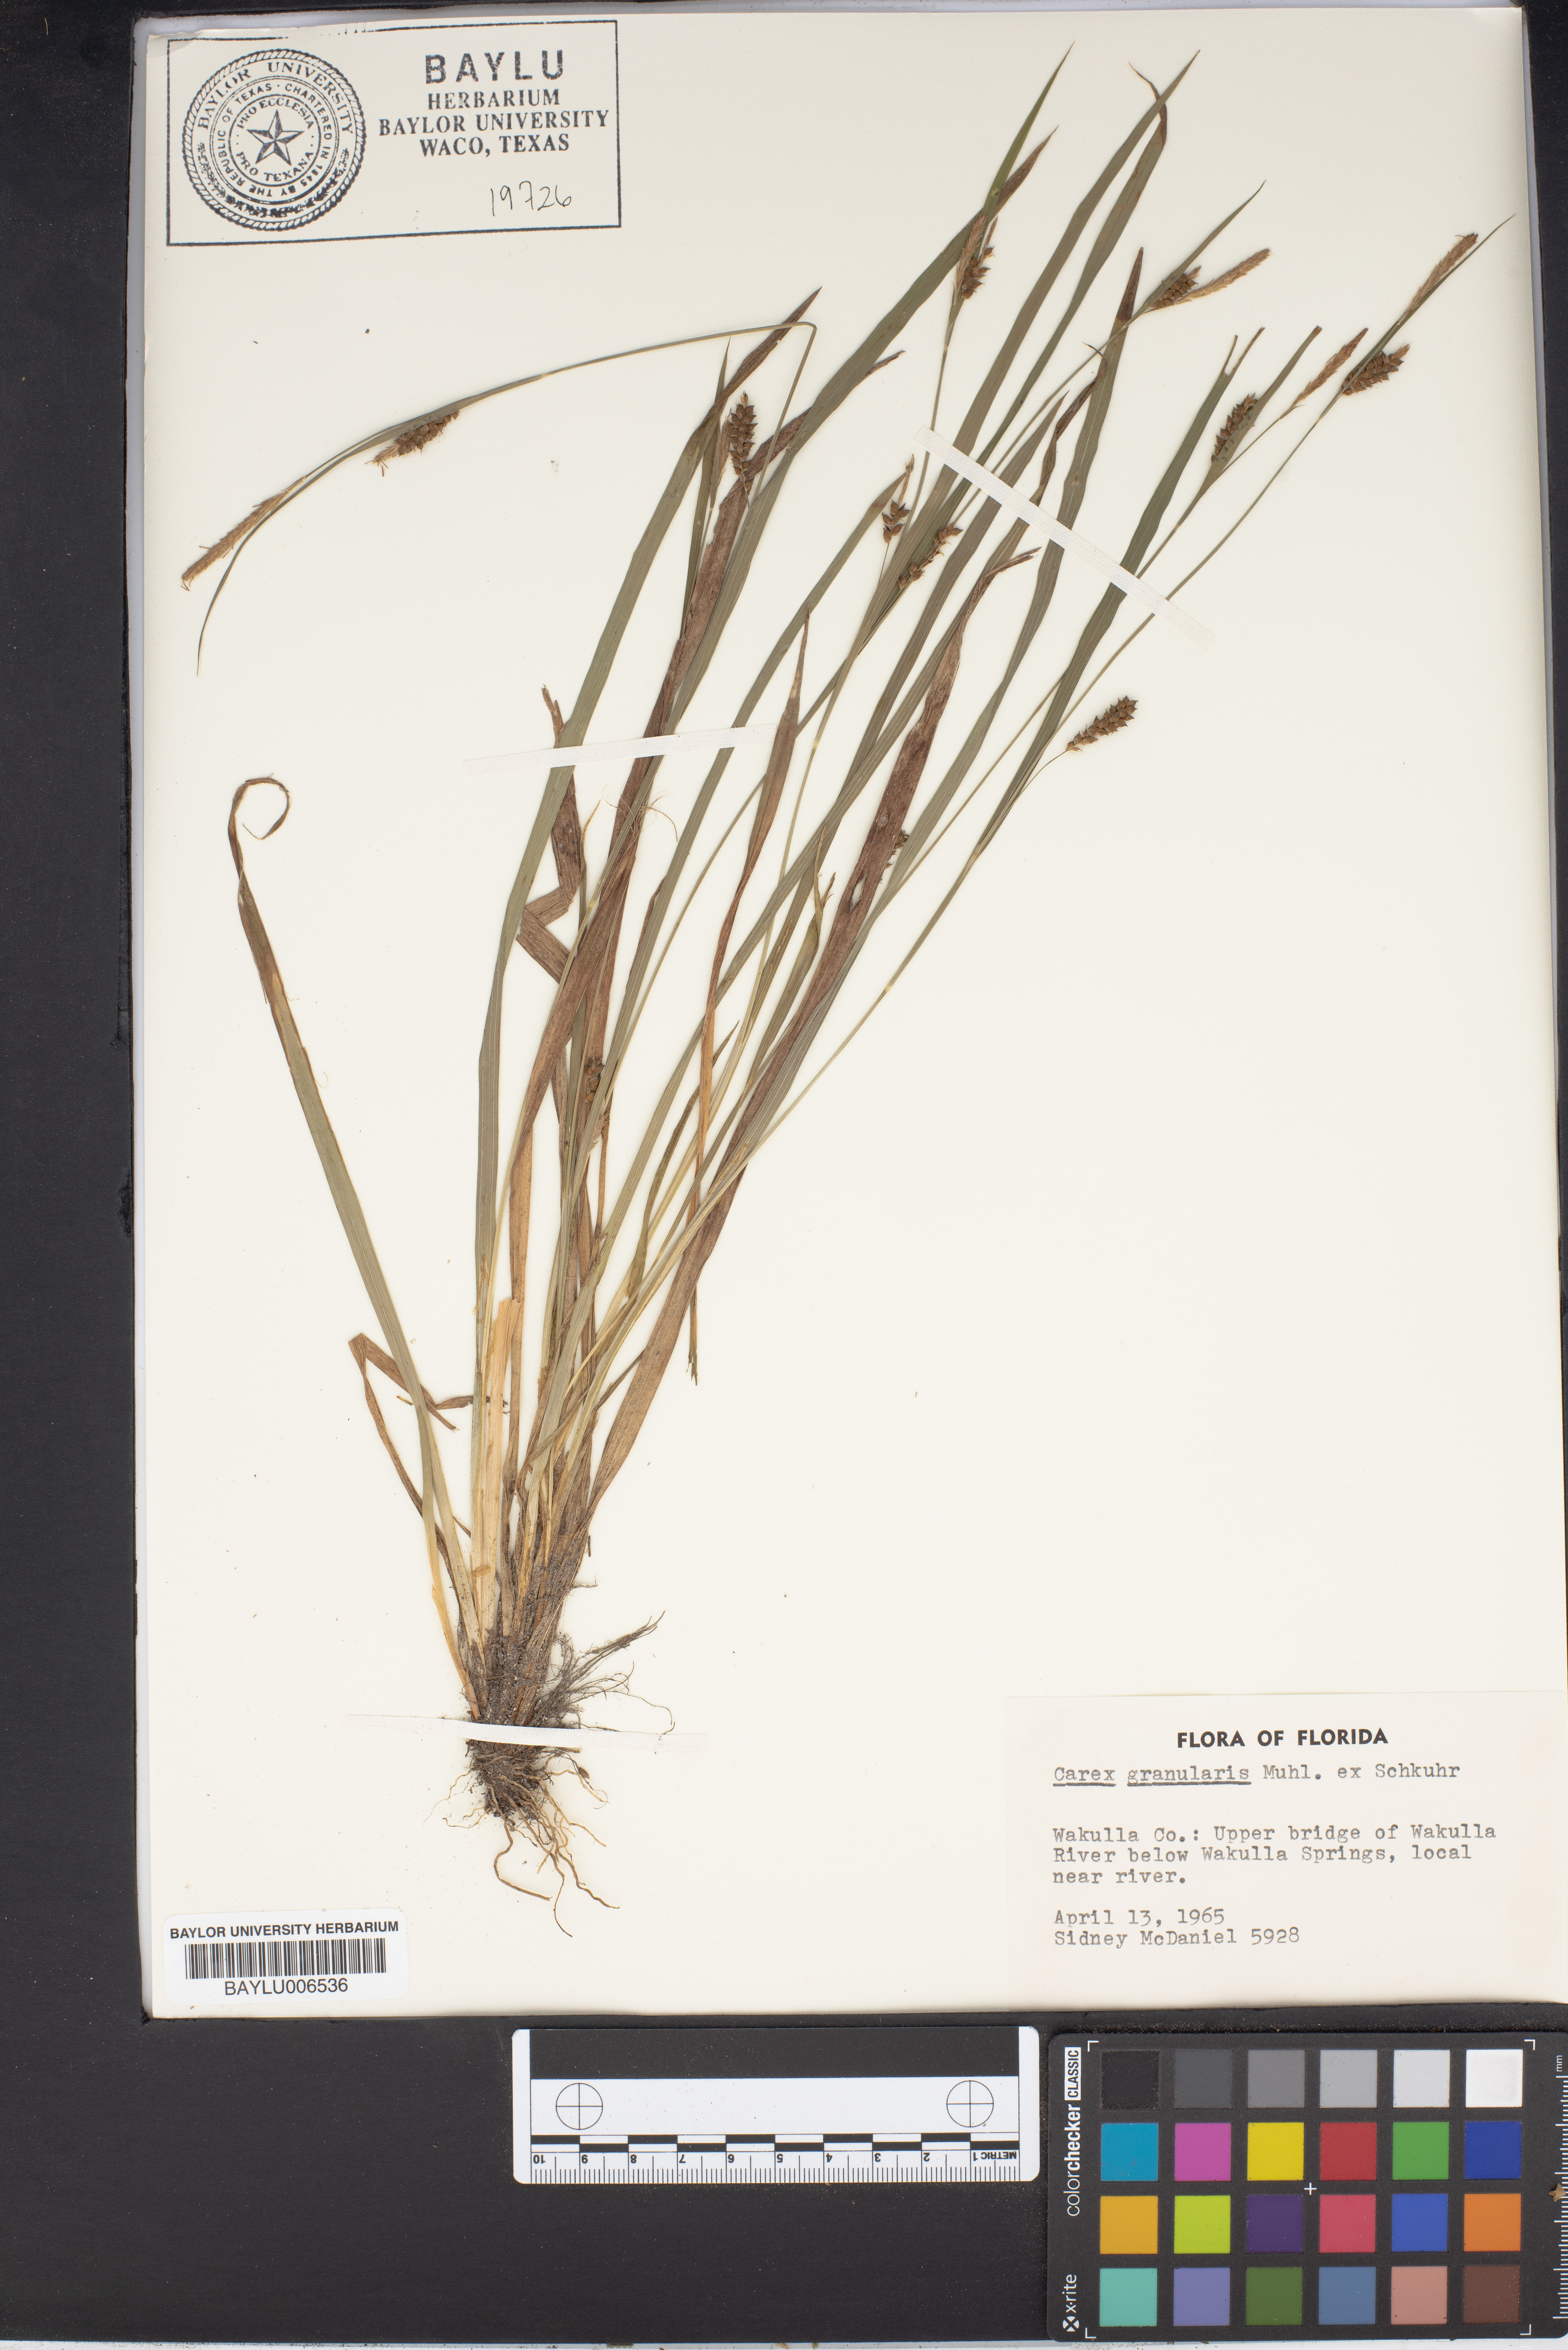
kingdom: Plantae
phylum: Tracheophyta
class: Liliopsida
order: Poales
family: Cyperaceae
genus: Carex
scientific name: Carex granularis
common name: Granular sedge
